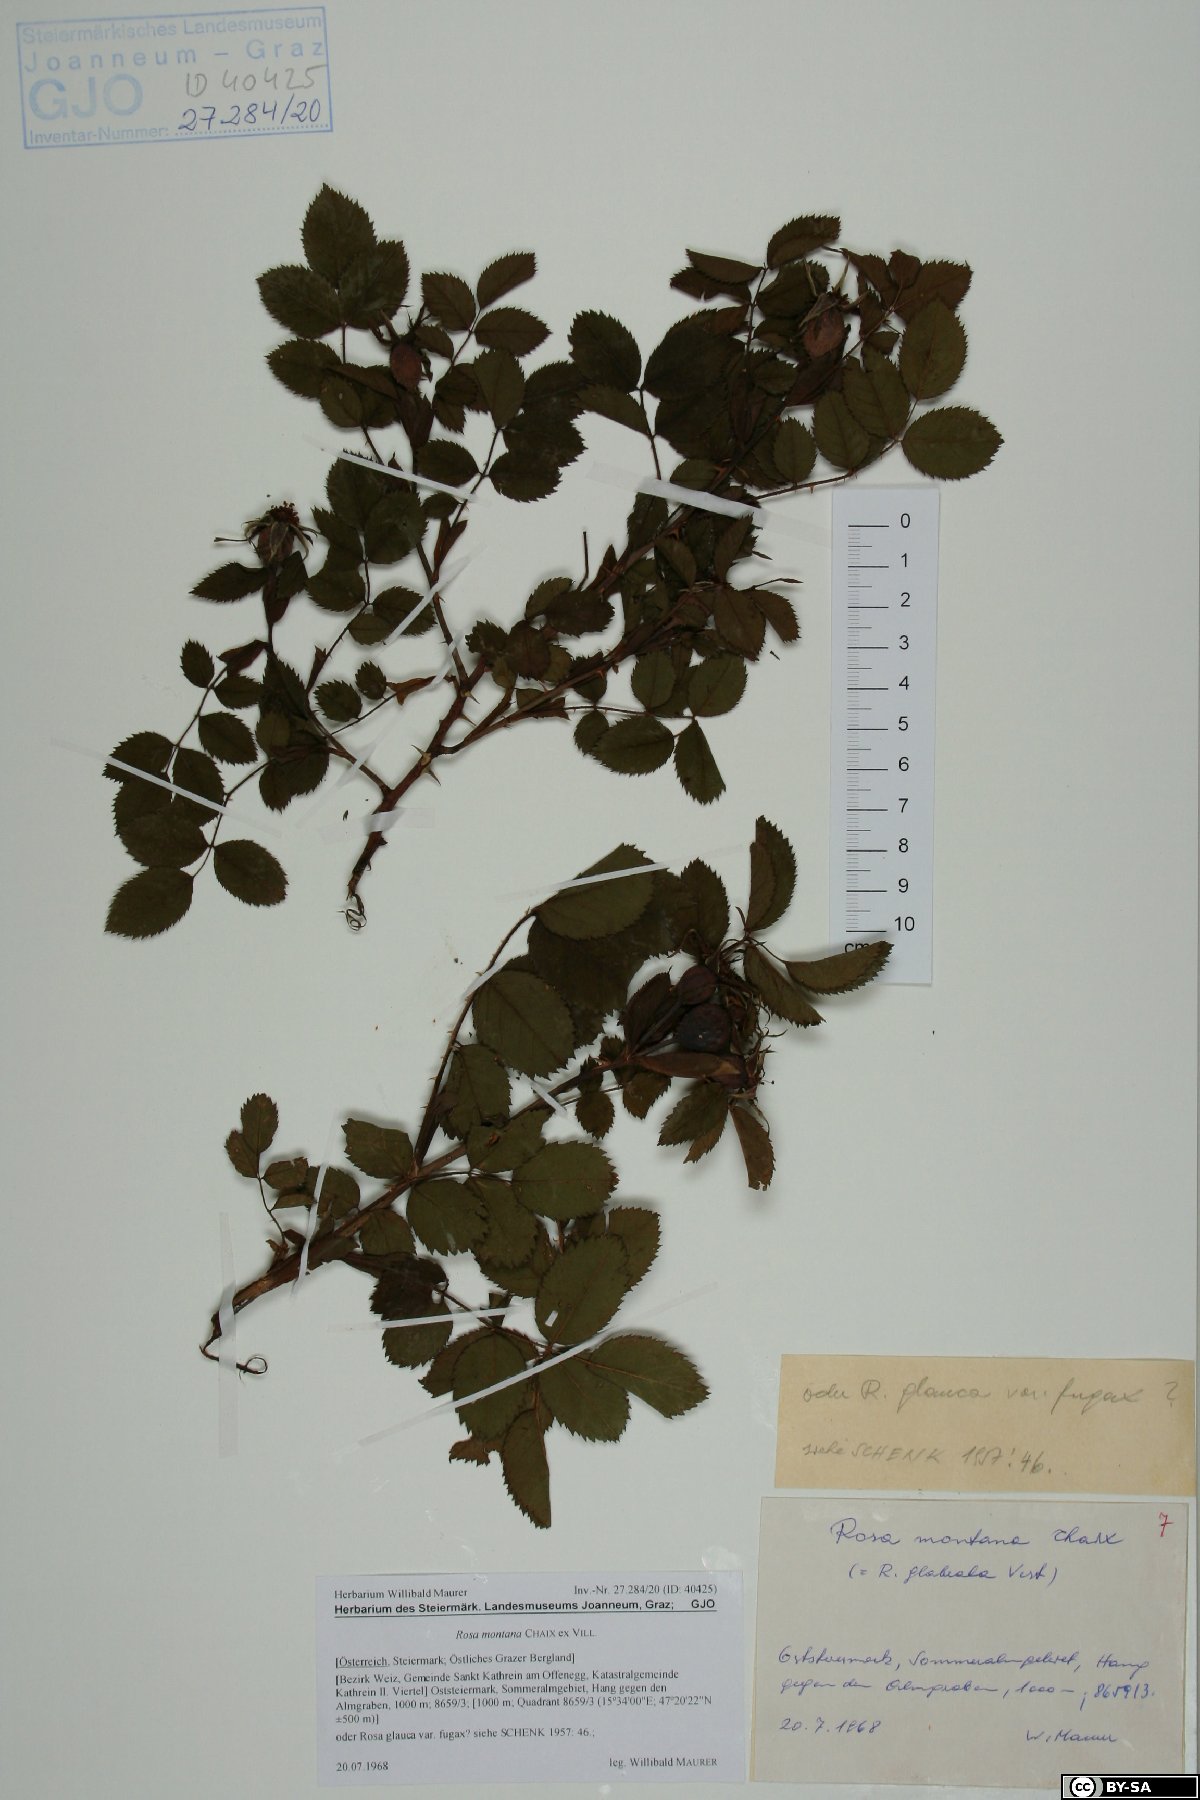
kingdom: Plantae
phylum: Tracheophyta
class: Magnoliopsida
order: Rosales
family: Rosaceae
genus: Rosa
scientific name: Rosa montana
